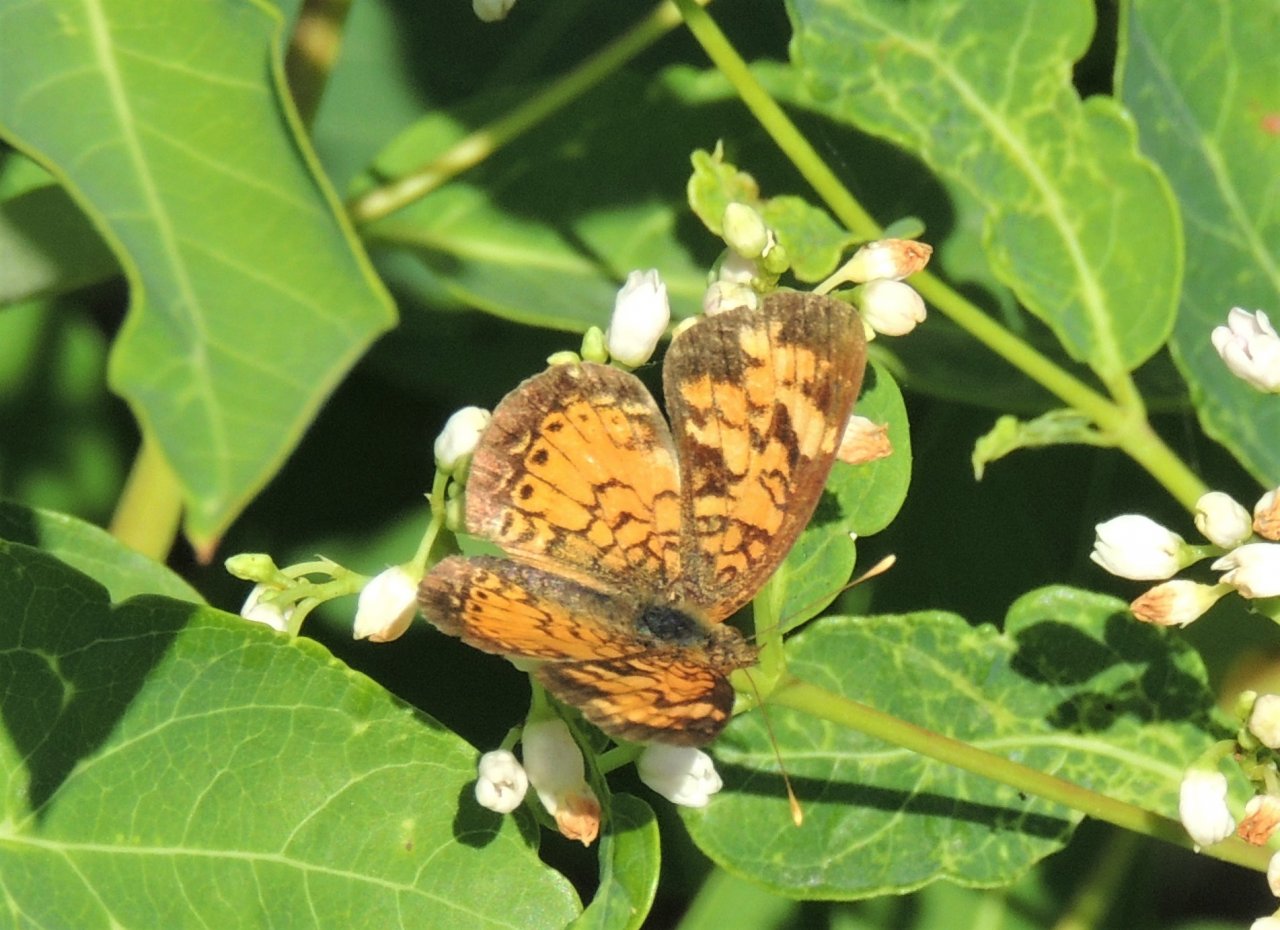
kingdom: Animalia
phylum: Arthropoda
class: Insecta
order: Lepidoptera
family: Nymphalidae
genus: Phyciodes
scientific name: Phyciodes tharos
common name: Northern Crescent
